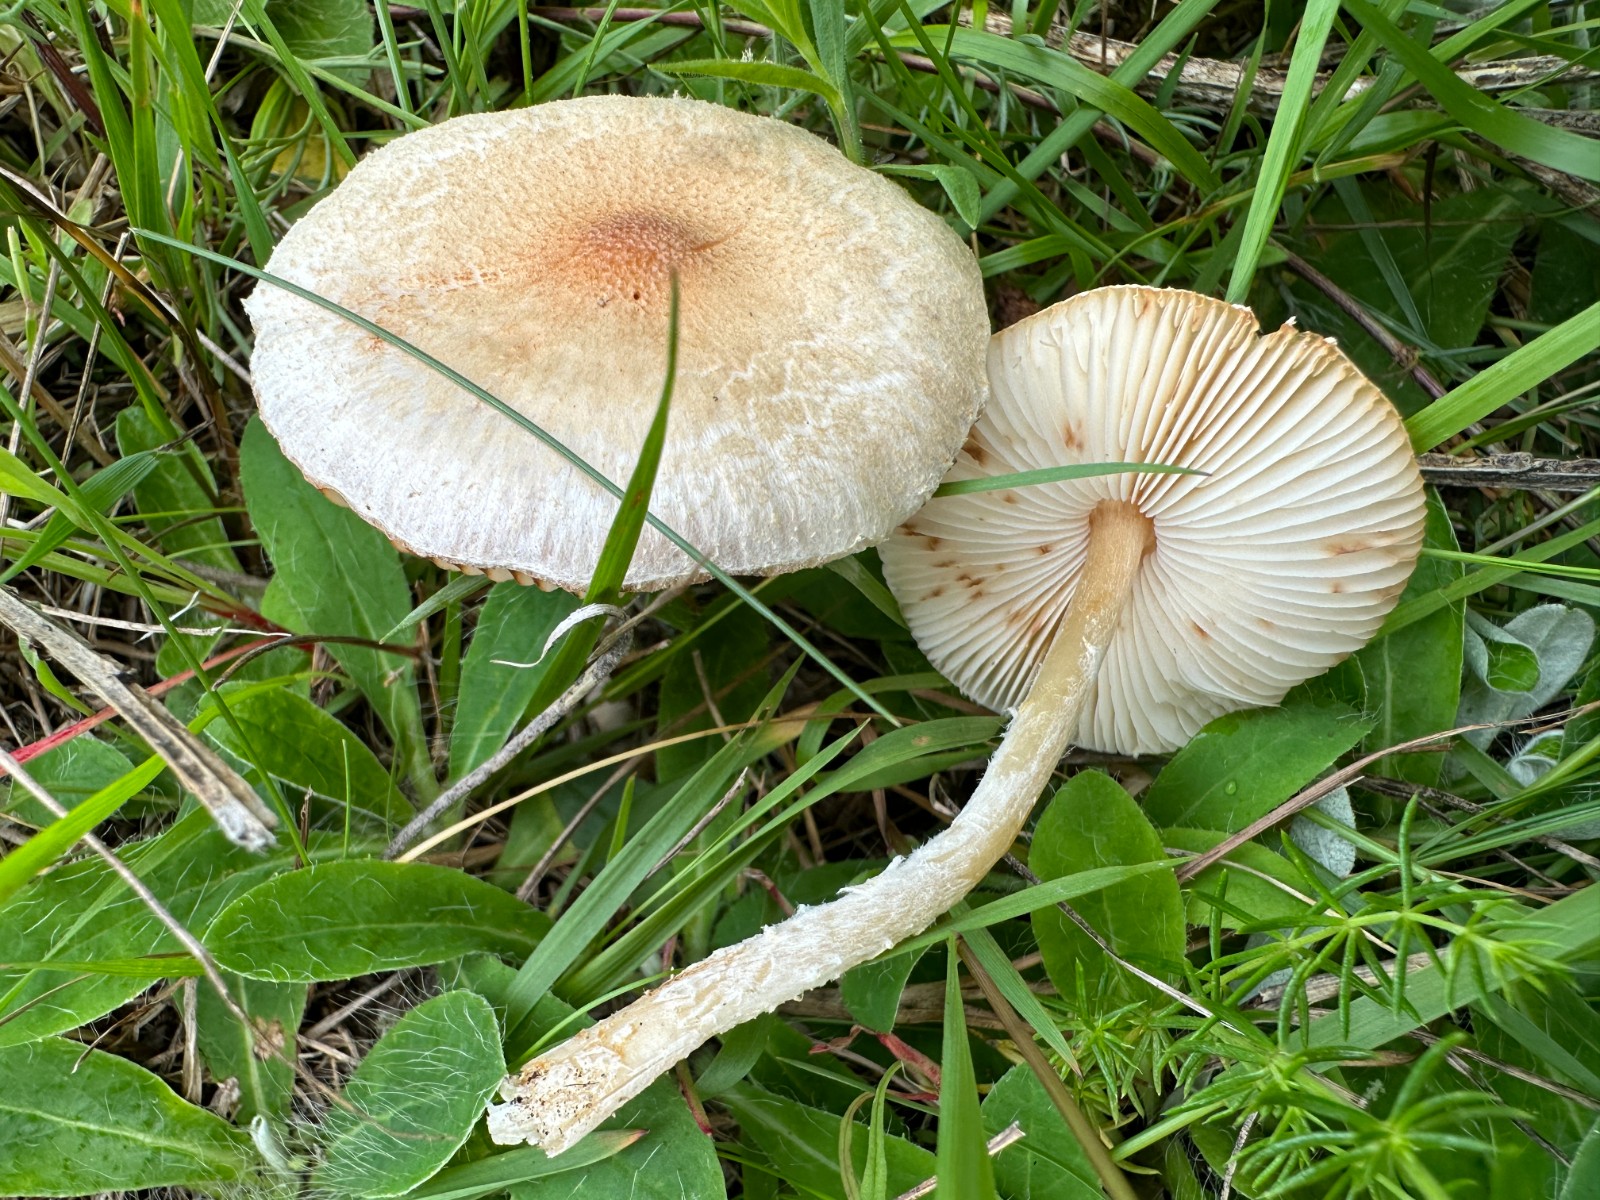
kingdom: Fungi
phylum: Basidiomycota
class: Agaricomycetes
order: Agaricales
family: Agaricaceae
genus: Lepiota
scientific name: Lepiota
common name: parasolhat
